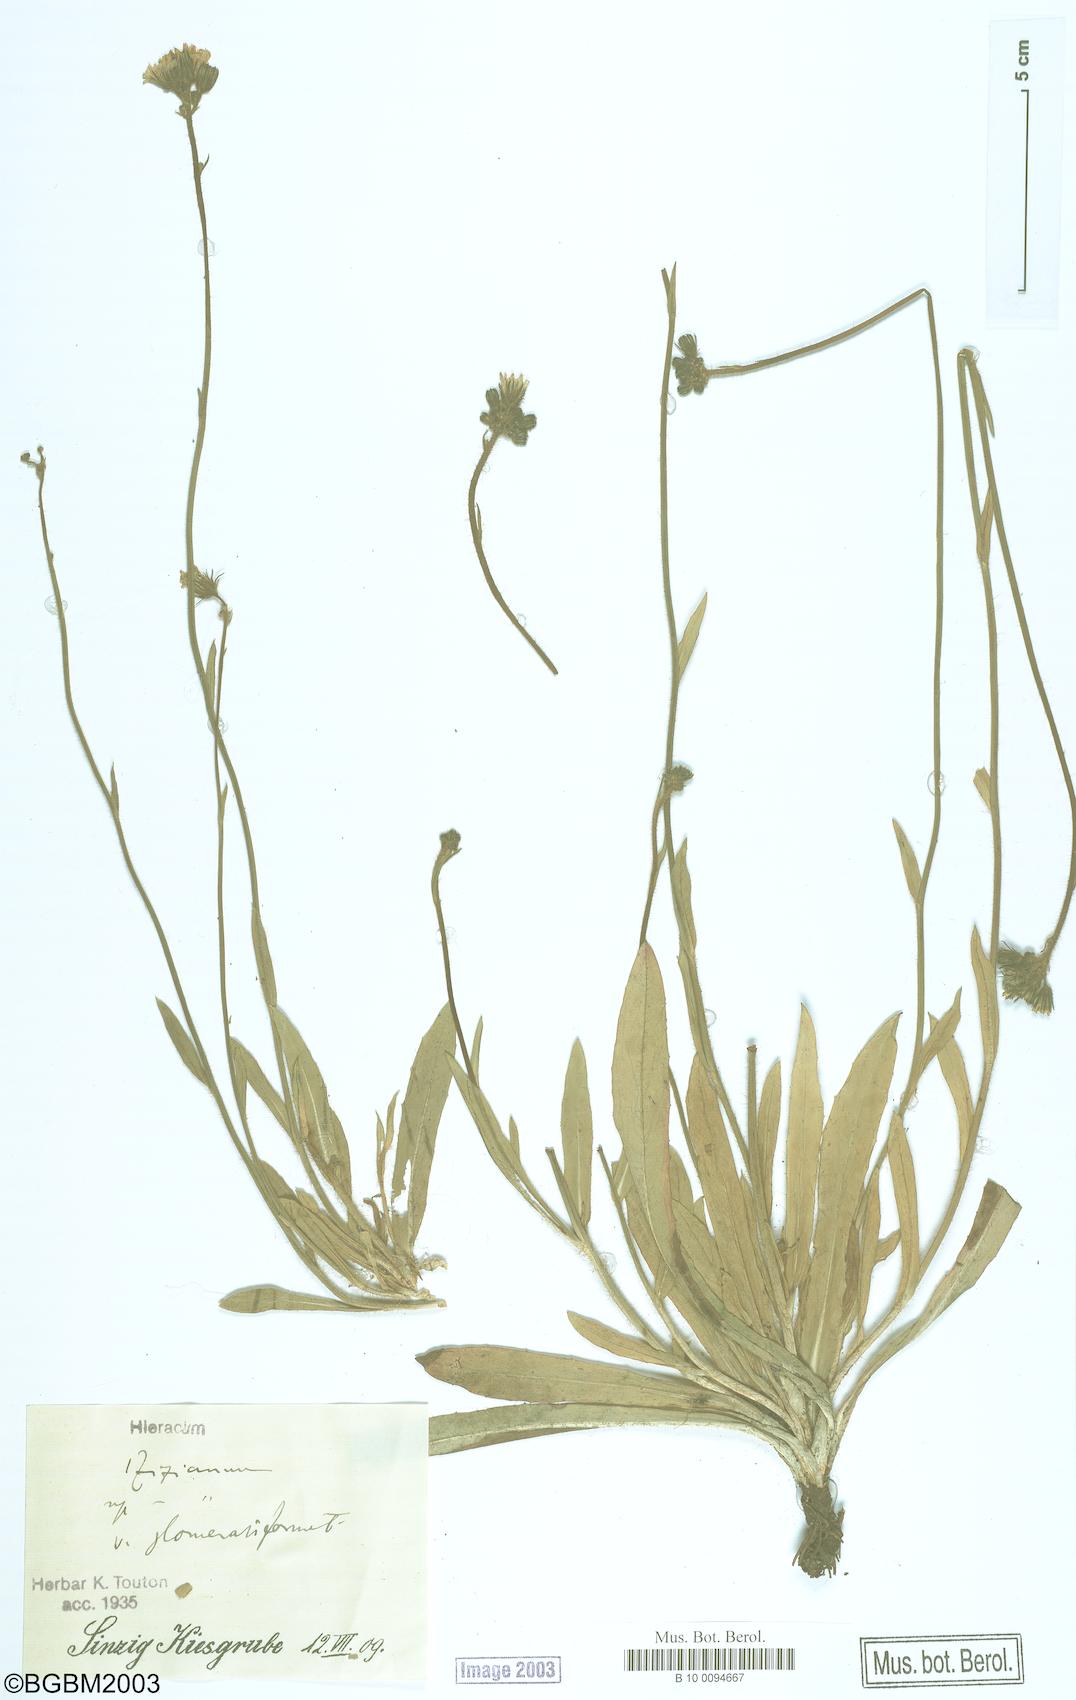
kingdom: Plantae
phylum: Tracheophyta
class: Magnoliopsida
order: Asterales
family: Asteraceae
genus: Pilosella
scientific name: Pilosella ziziana
